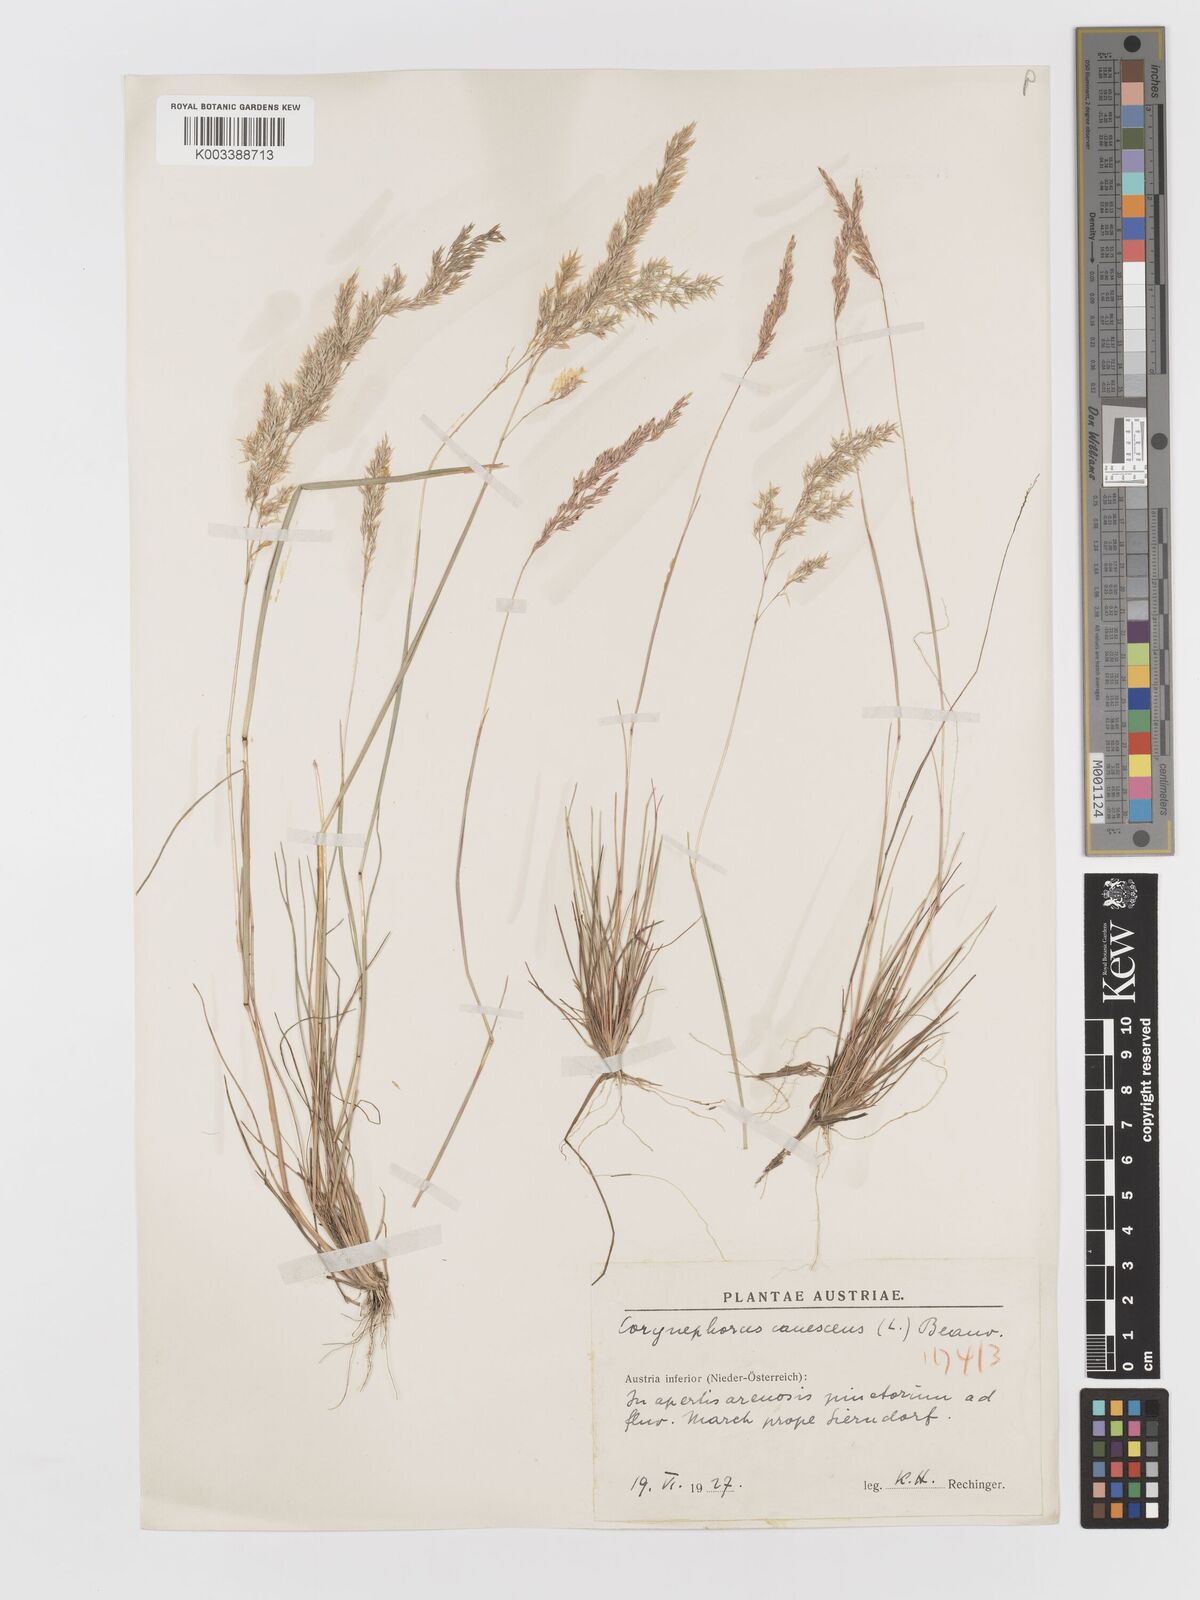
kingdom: Plantae
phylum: Tracheophyta
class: Liliopsida
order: Poales
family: Poaceae
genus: Corynephorus
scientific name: Corynephorus canescens
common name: Grey hair-grass
